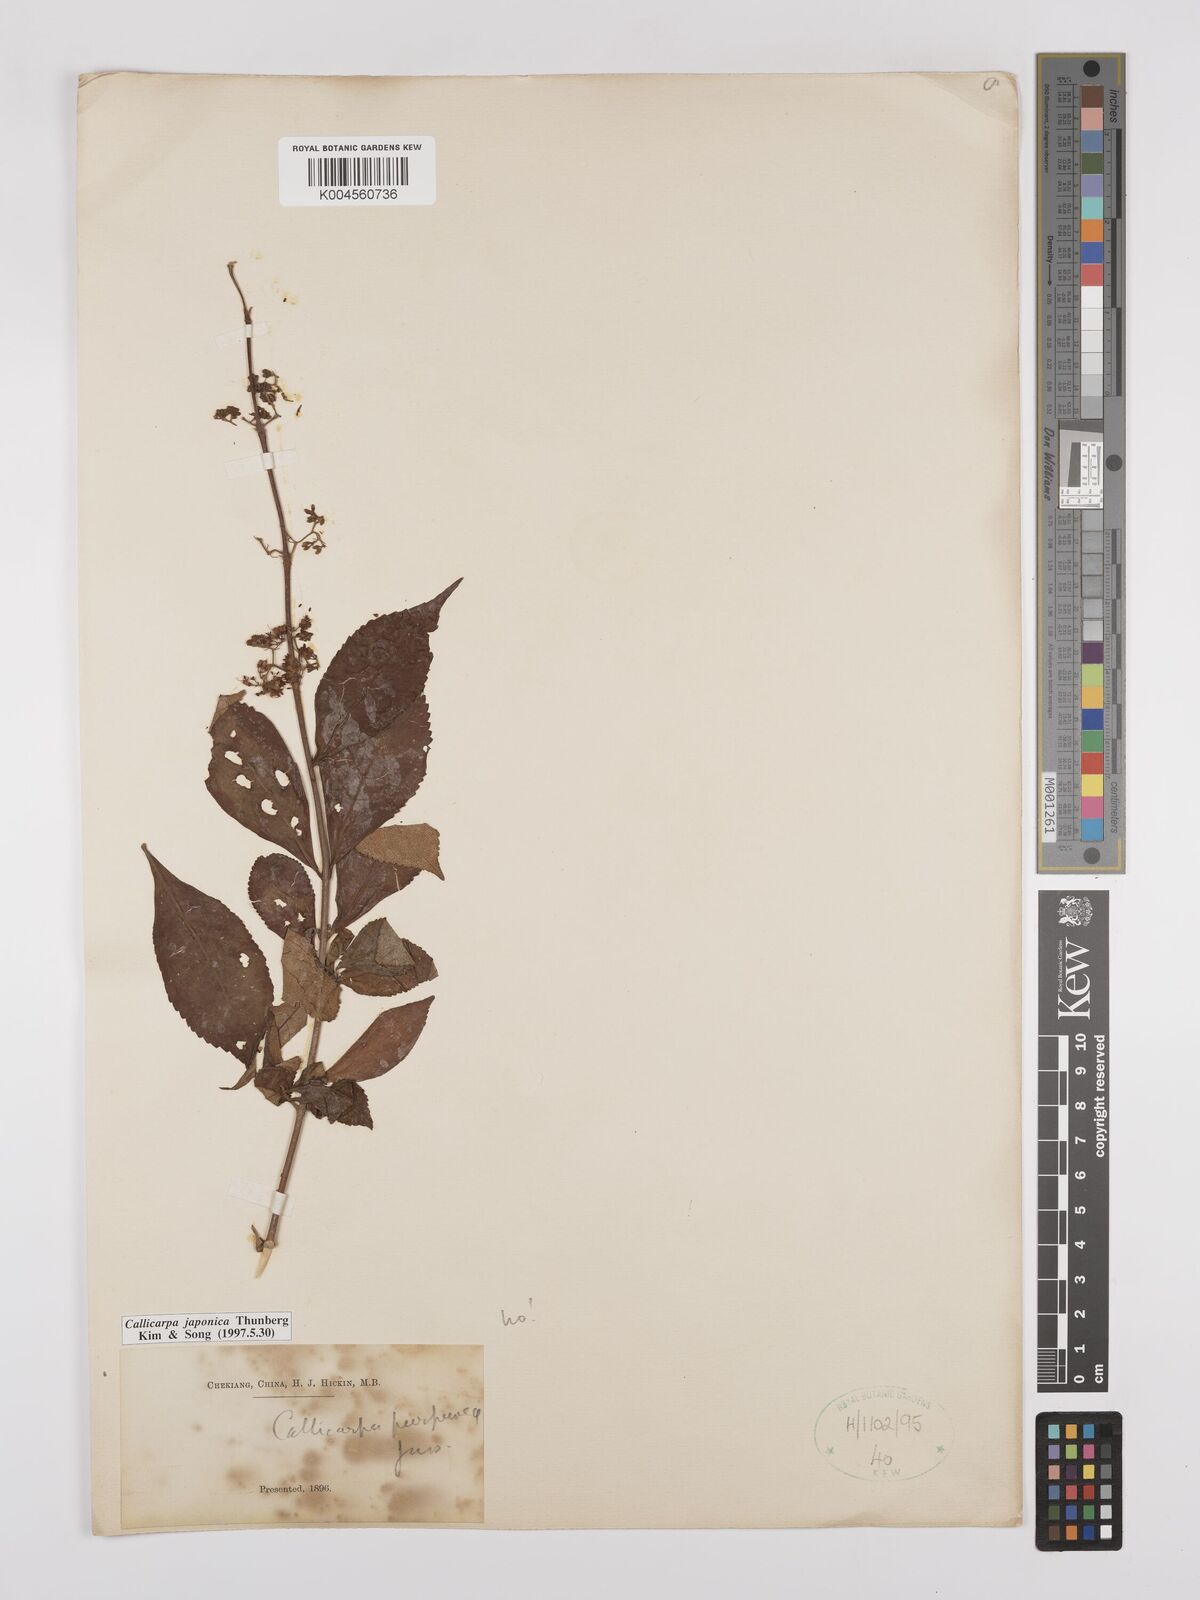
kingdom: Plantae
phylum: Tracheophyta
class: Magnoliopsida
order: Lamiales
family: Lamiaceae
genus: Callicarpa
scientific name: Callicarpa japonica
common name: Japanese beauty-berry
